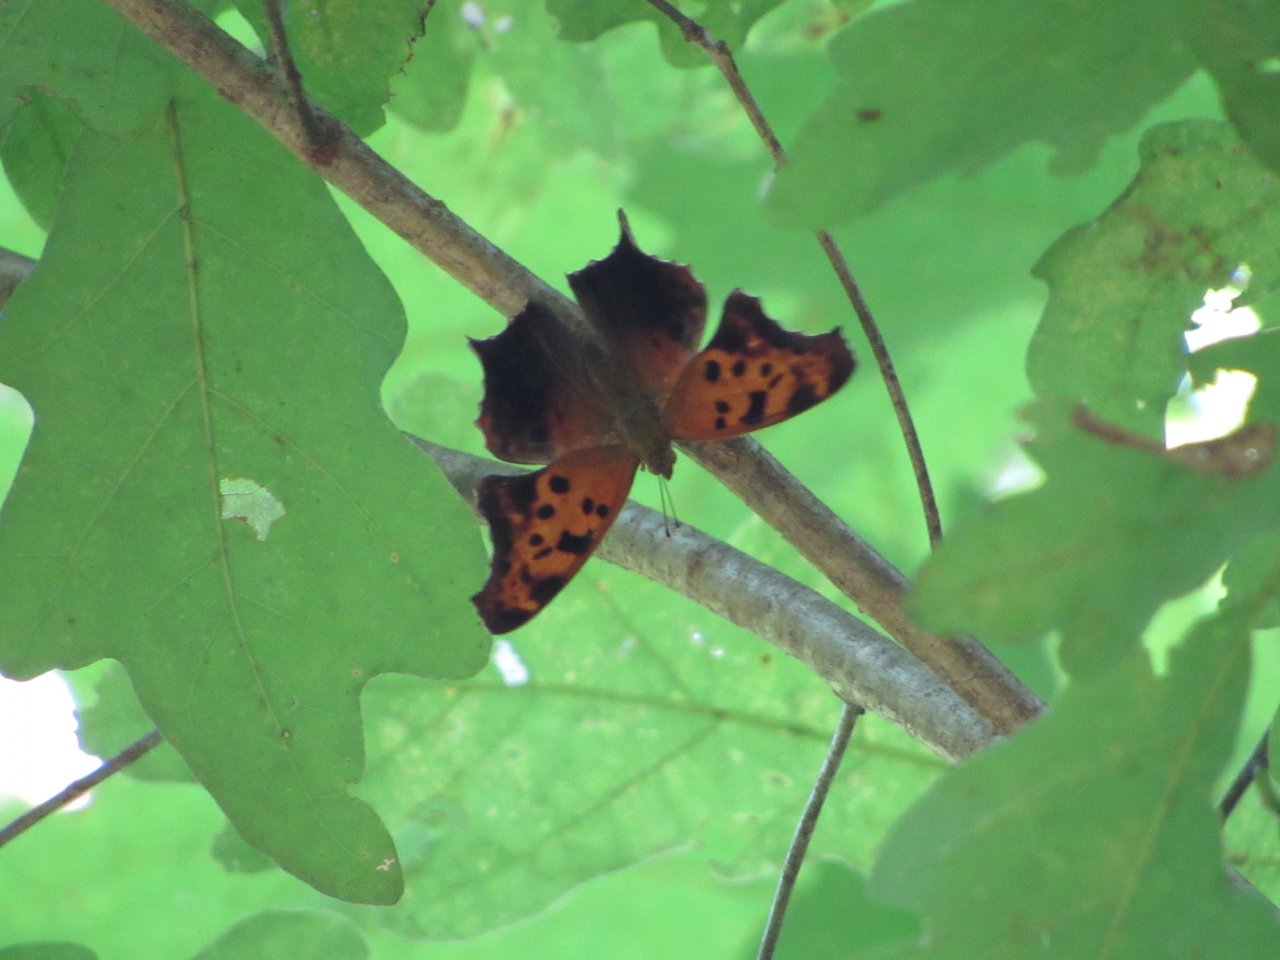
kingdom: Animalia
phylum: Arthropoda
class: Insecta
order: Lepidoptera
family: Nymphalidae
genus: Polygonia
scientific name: Polygonia interrogationis
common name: Question Mark
